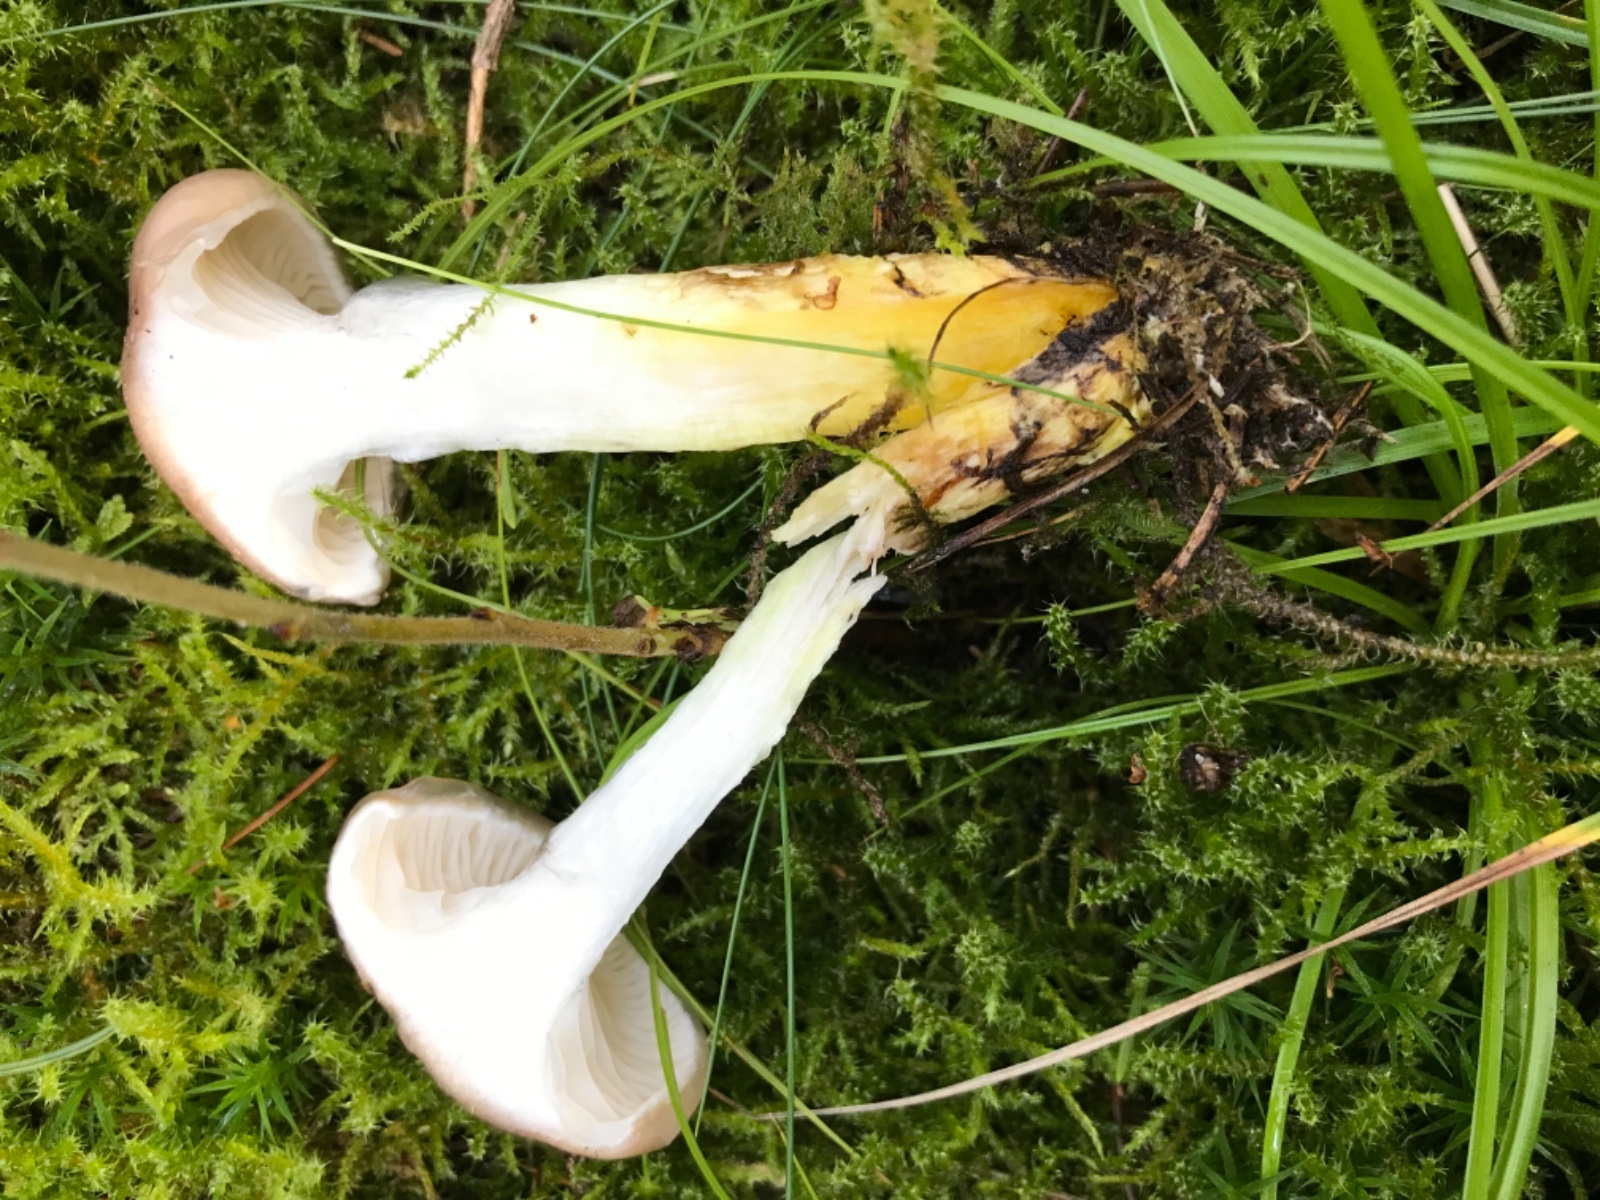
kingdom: Fungi
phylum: Basidiomycota
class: Agaricomycetes
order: Boletales
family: Gomphidiaceae
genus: Gomphidius
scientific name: Gomphidius glutinosus
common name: grå slimslør
